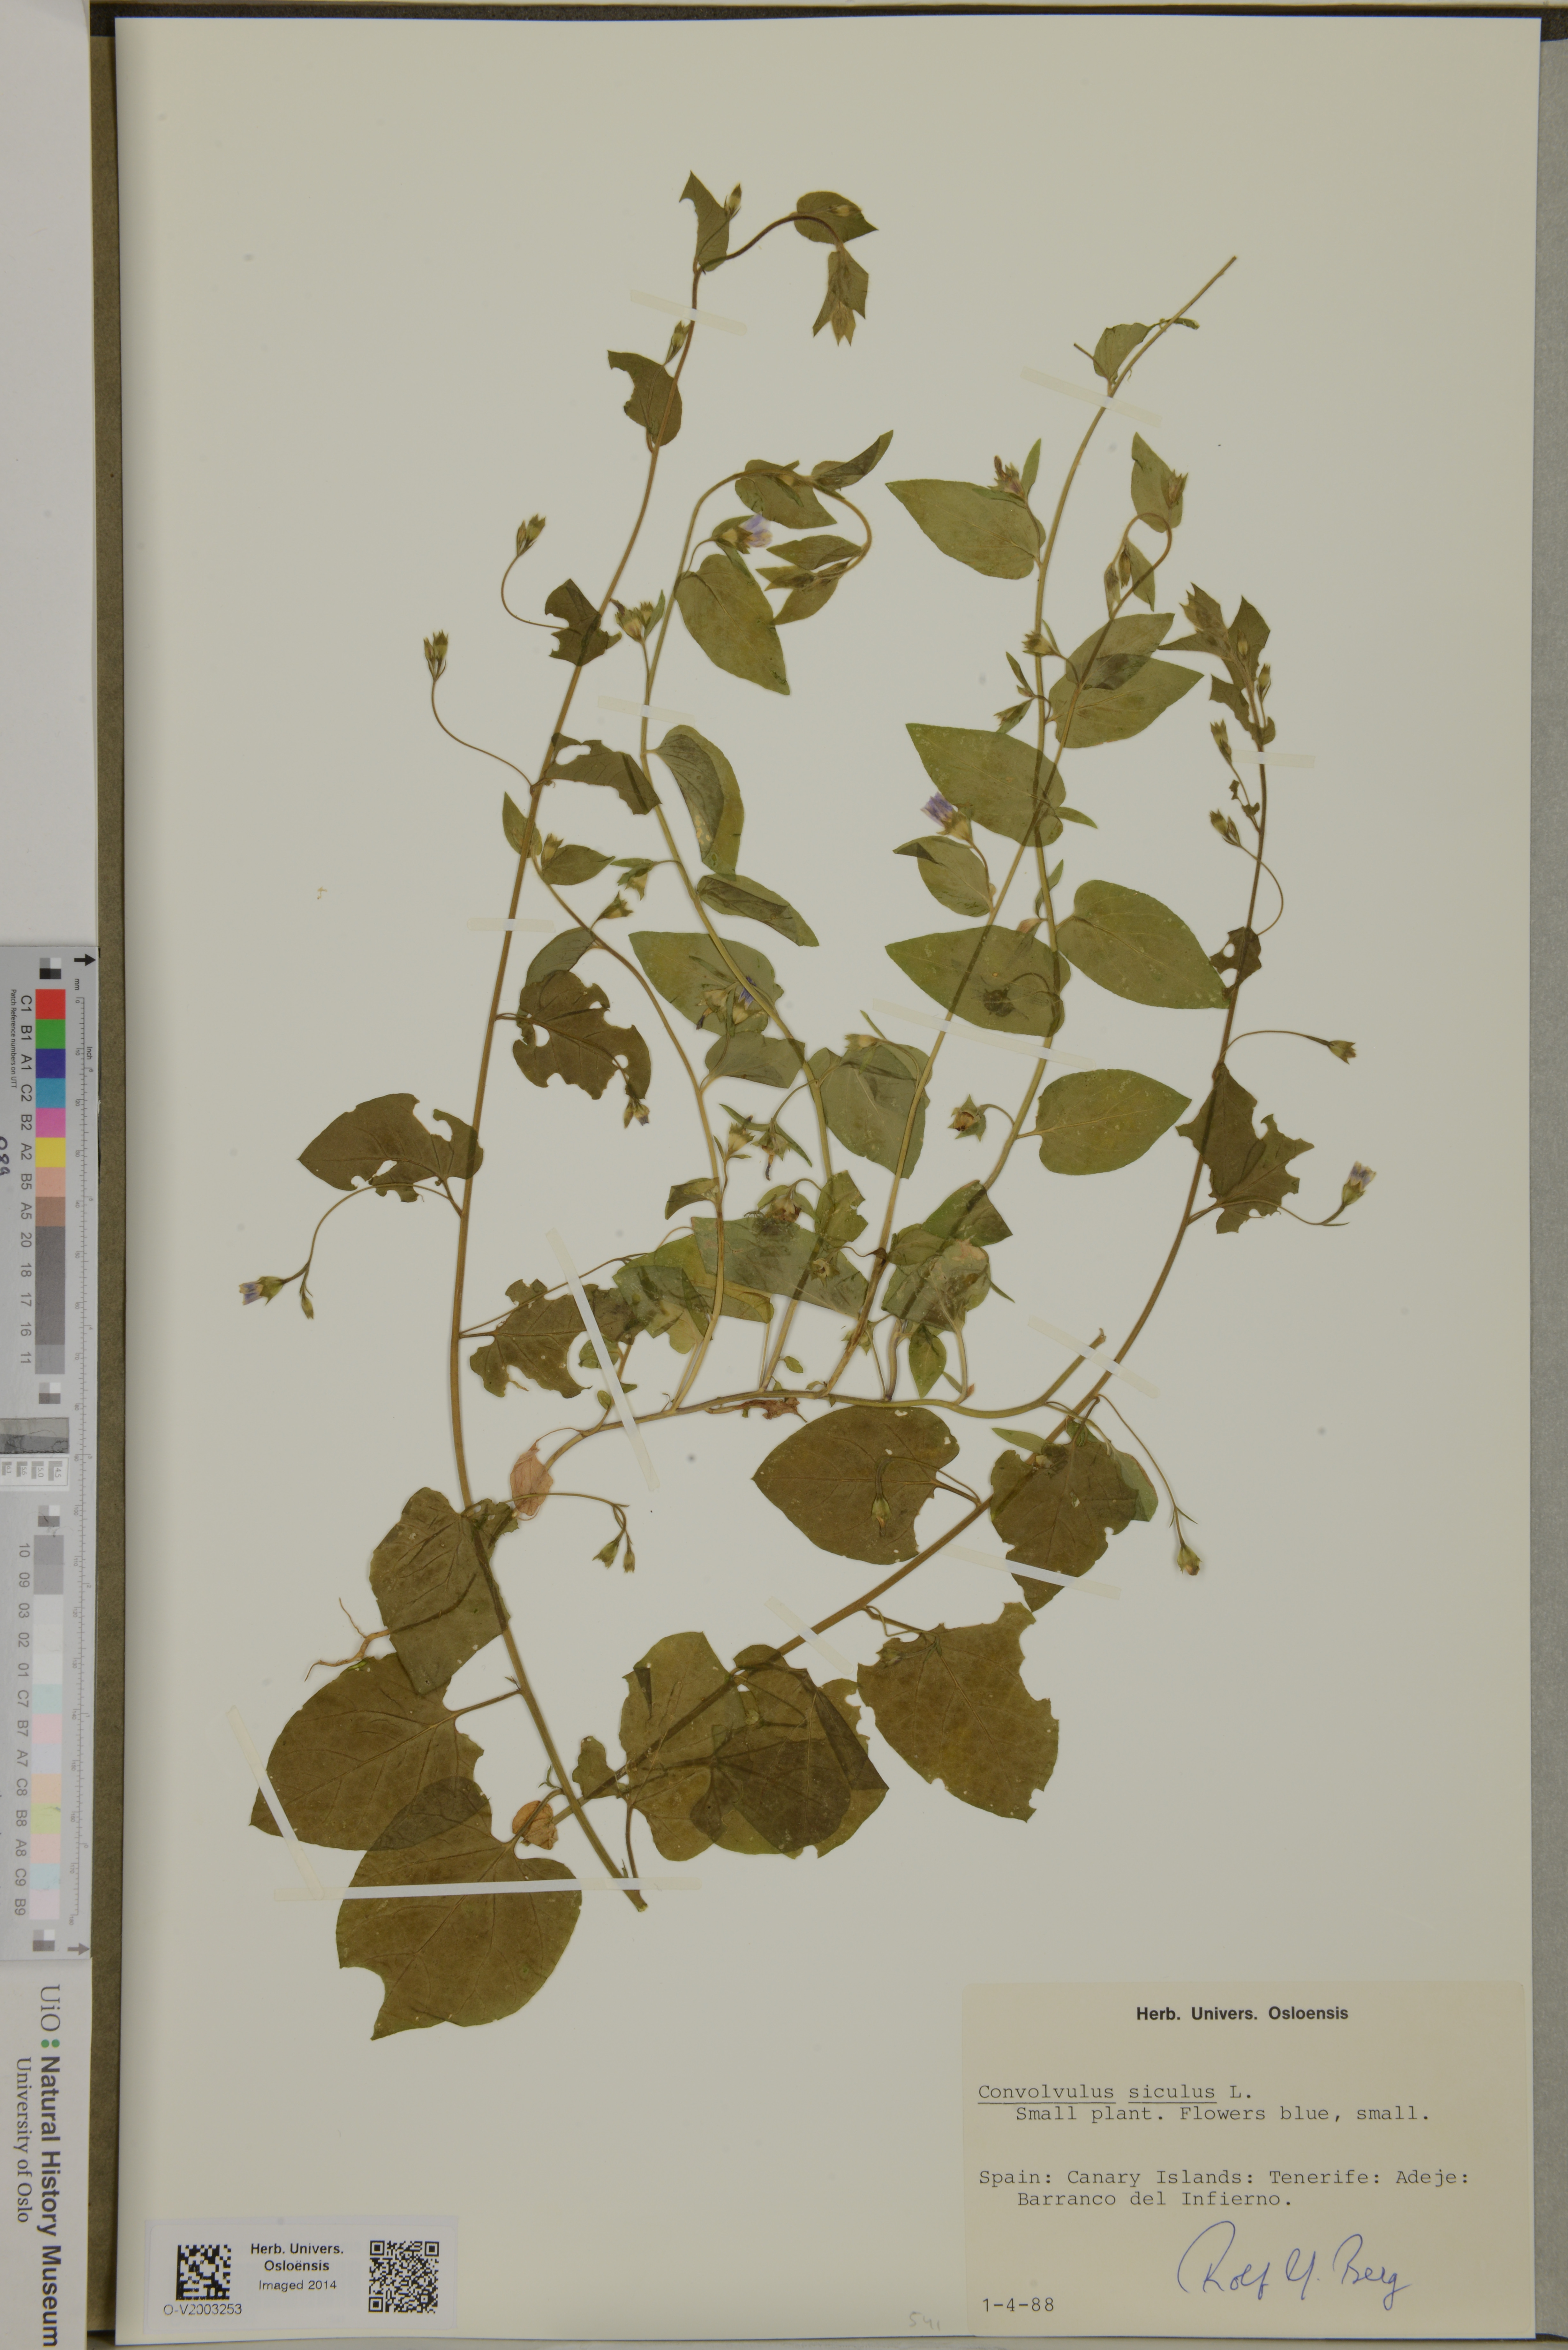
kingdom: Plantae
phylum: Tracheophyta
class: Magnoliopsida
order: Solanales
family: Convolvulaceae
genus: Convolvulus
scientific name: Convolvulus siculus
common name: Small blue-convolvulus
